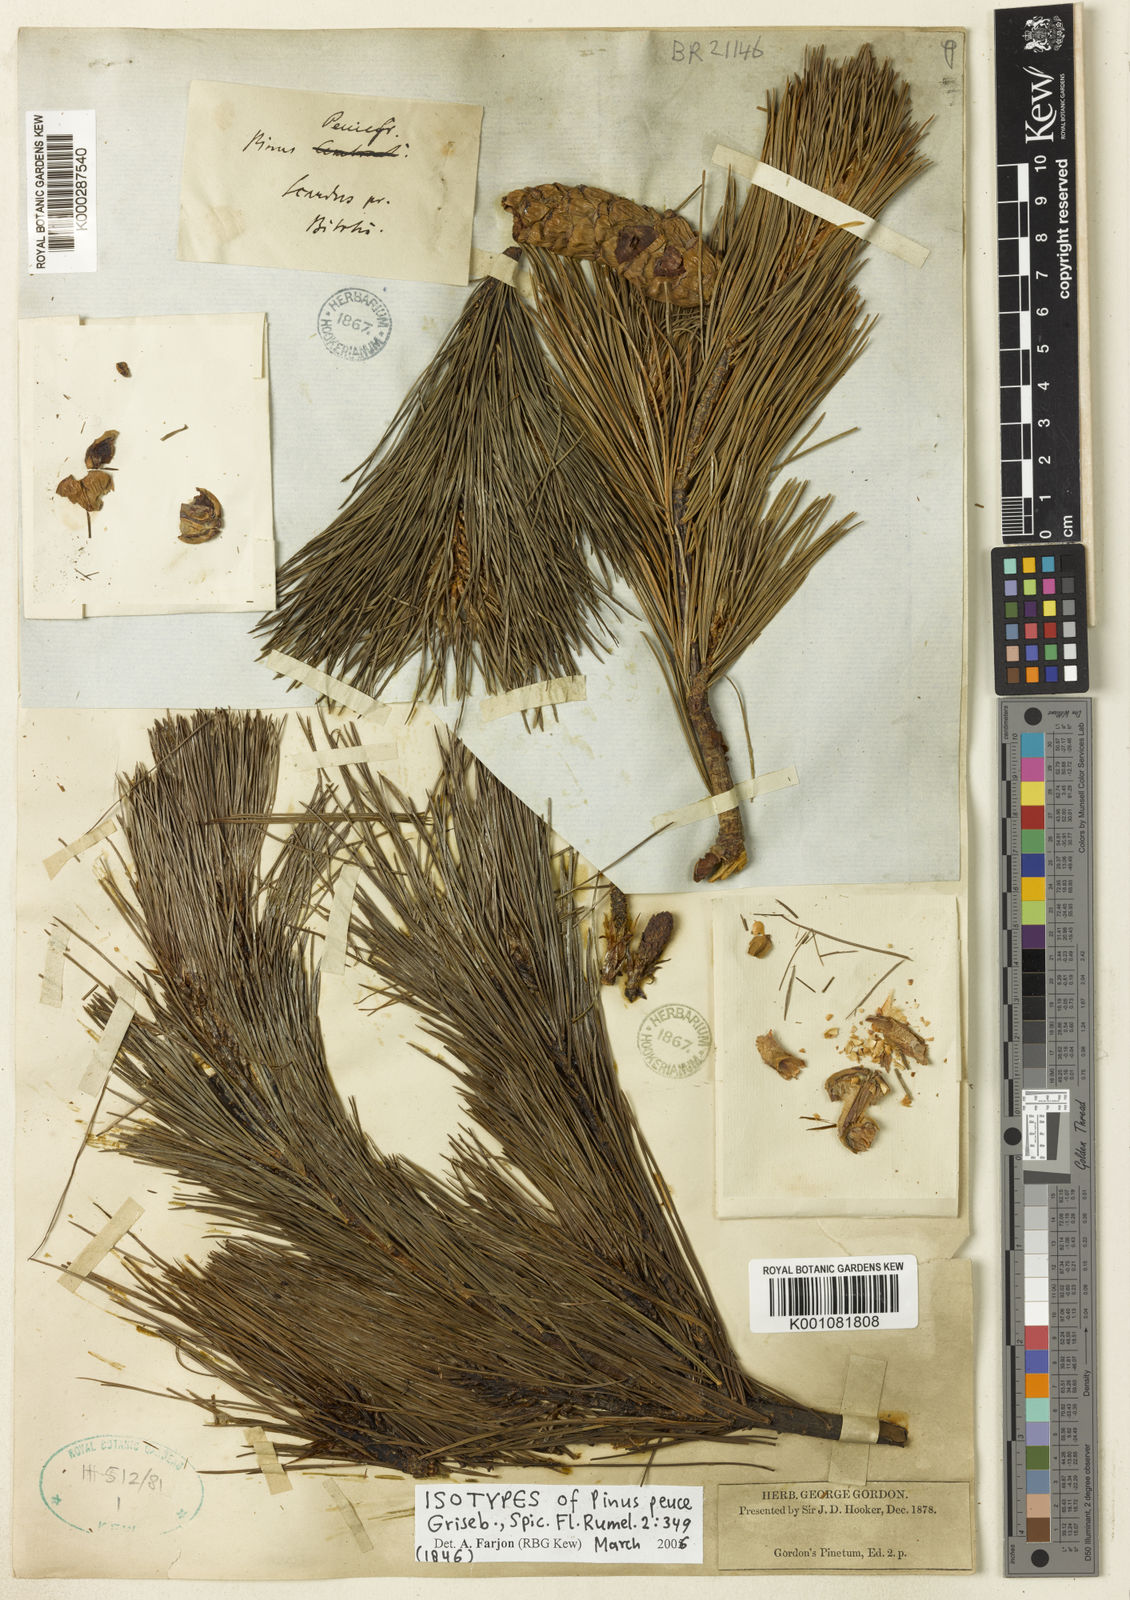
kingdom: Plantae
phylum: Tracheophyta
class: Pinopsida
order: Pinales
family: Pinaceae
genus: Pinus
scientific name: Pinus peuce
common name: Macedonian pine
